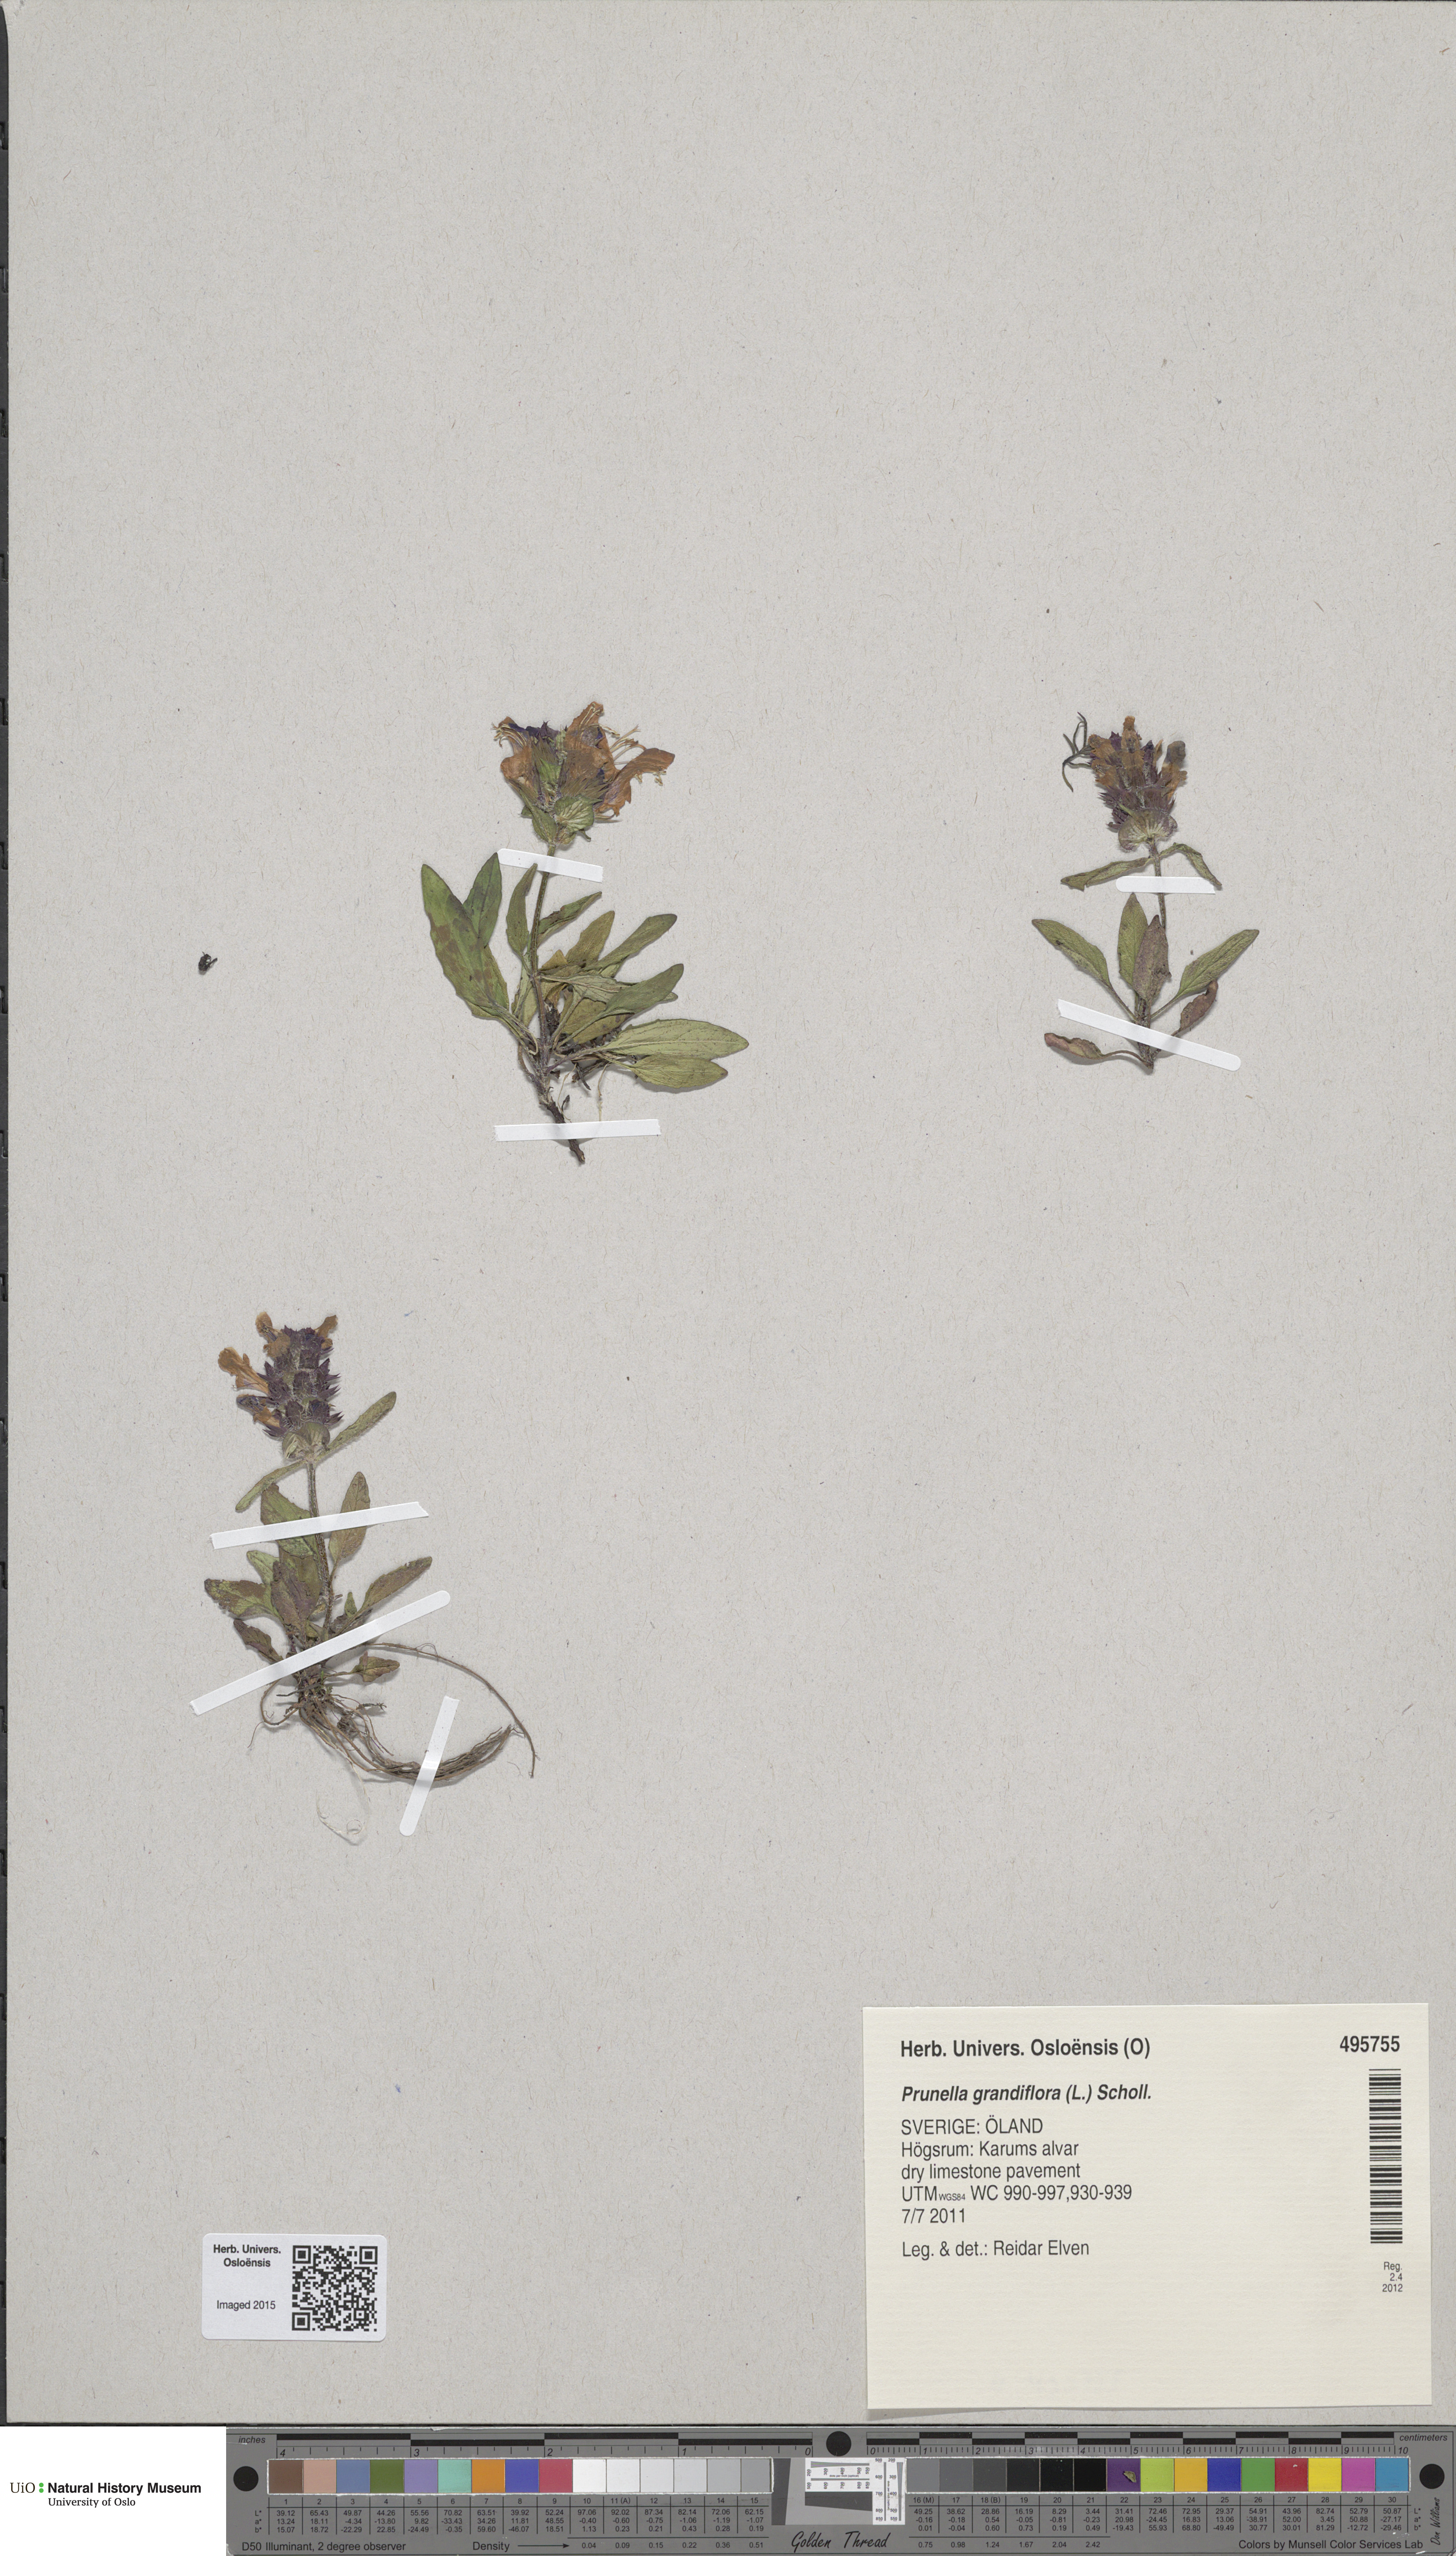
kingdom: Plantae
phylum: Tracheophyta
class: Magnoliopsida
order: Lamiales
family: Lamiaceae
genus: Prunella
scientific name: Prunella grandiflora
